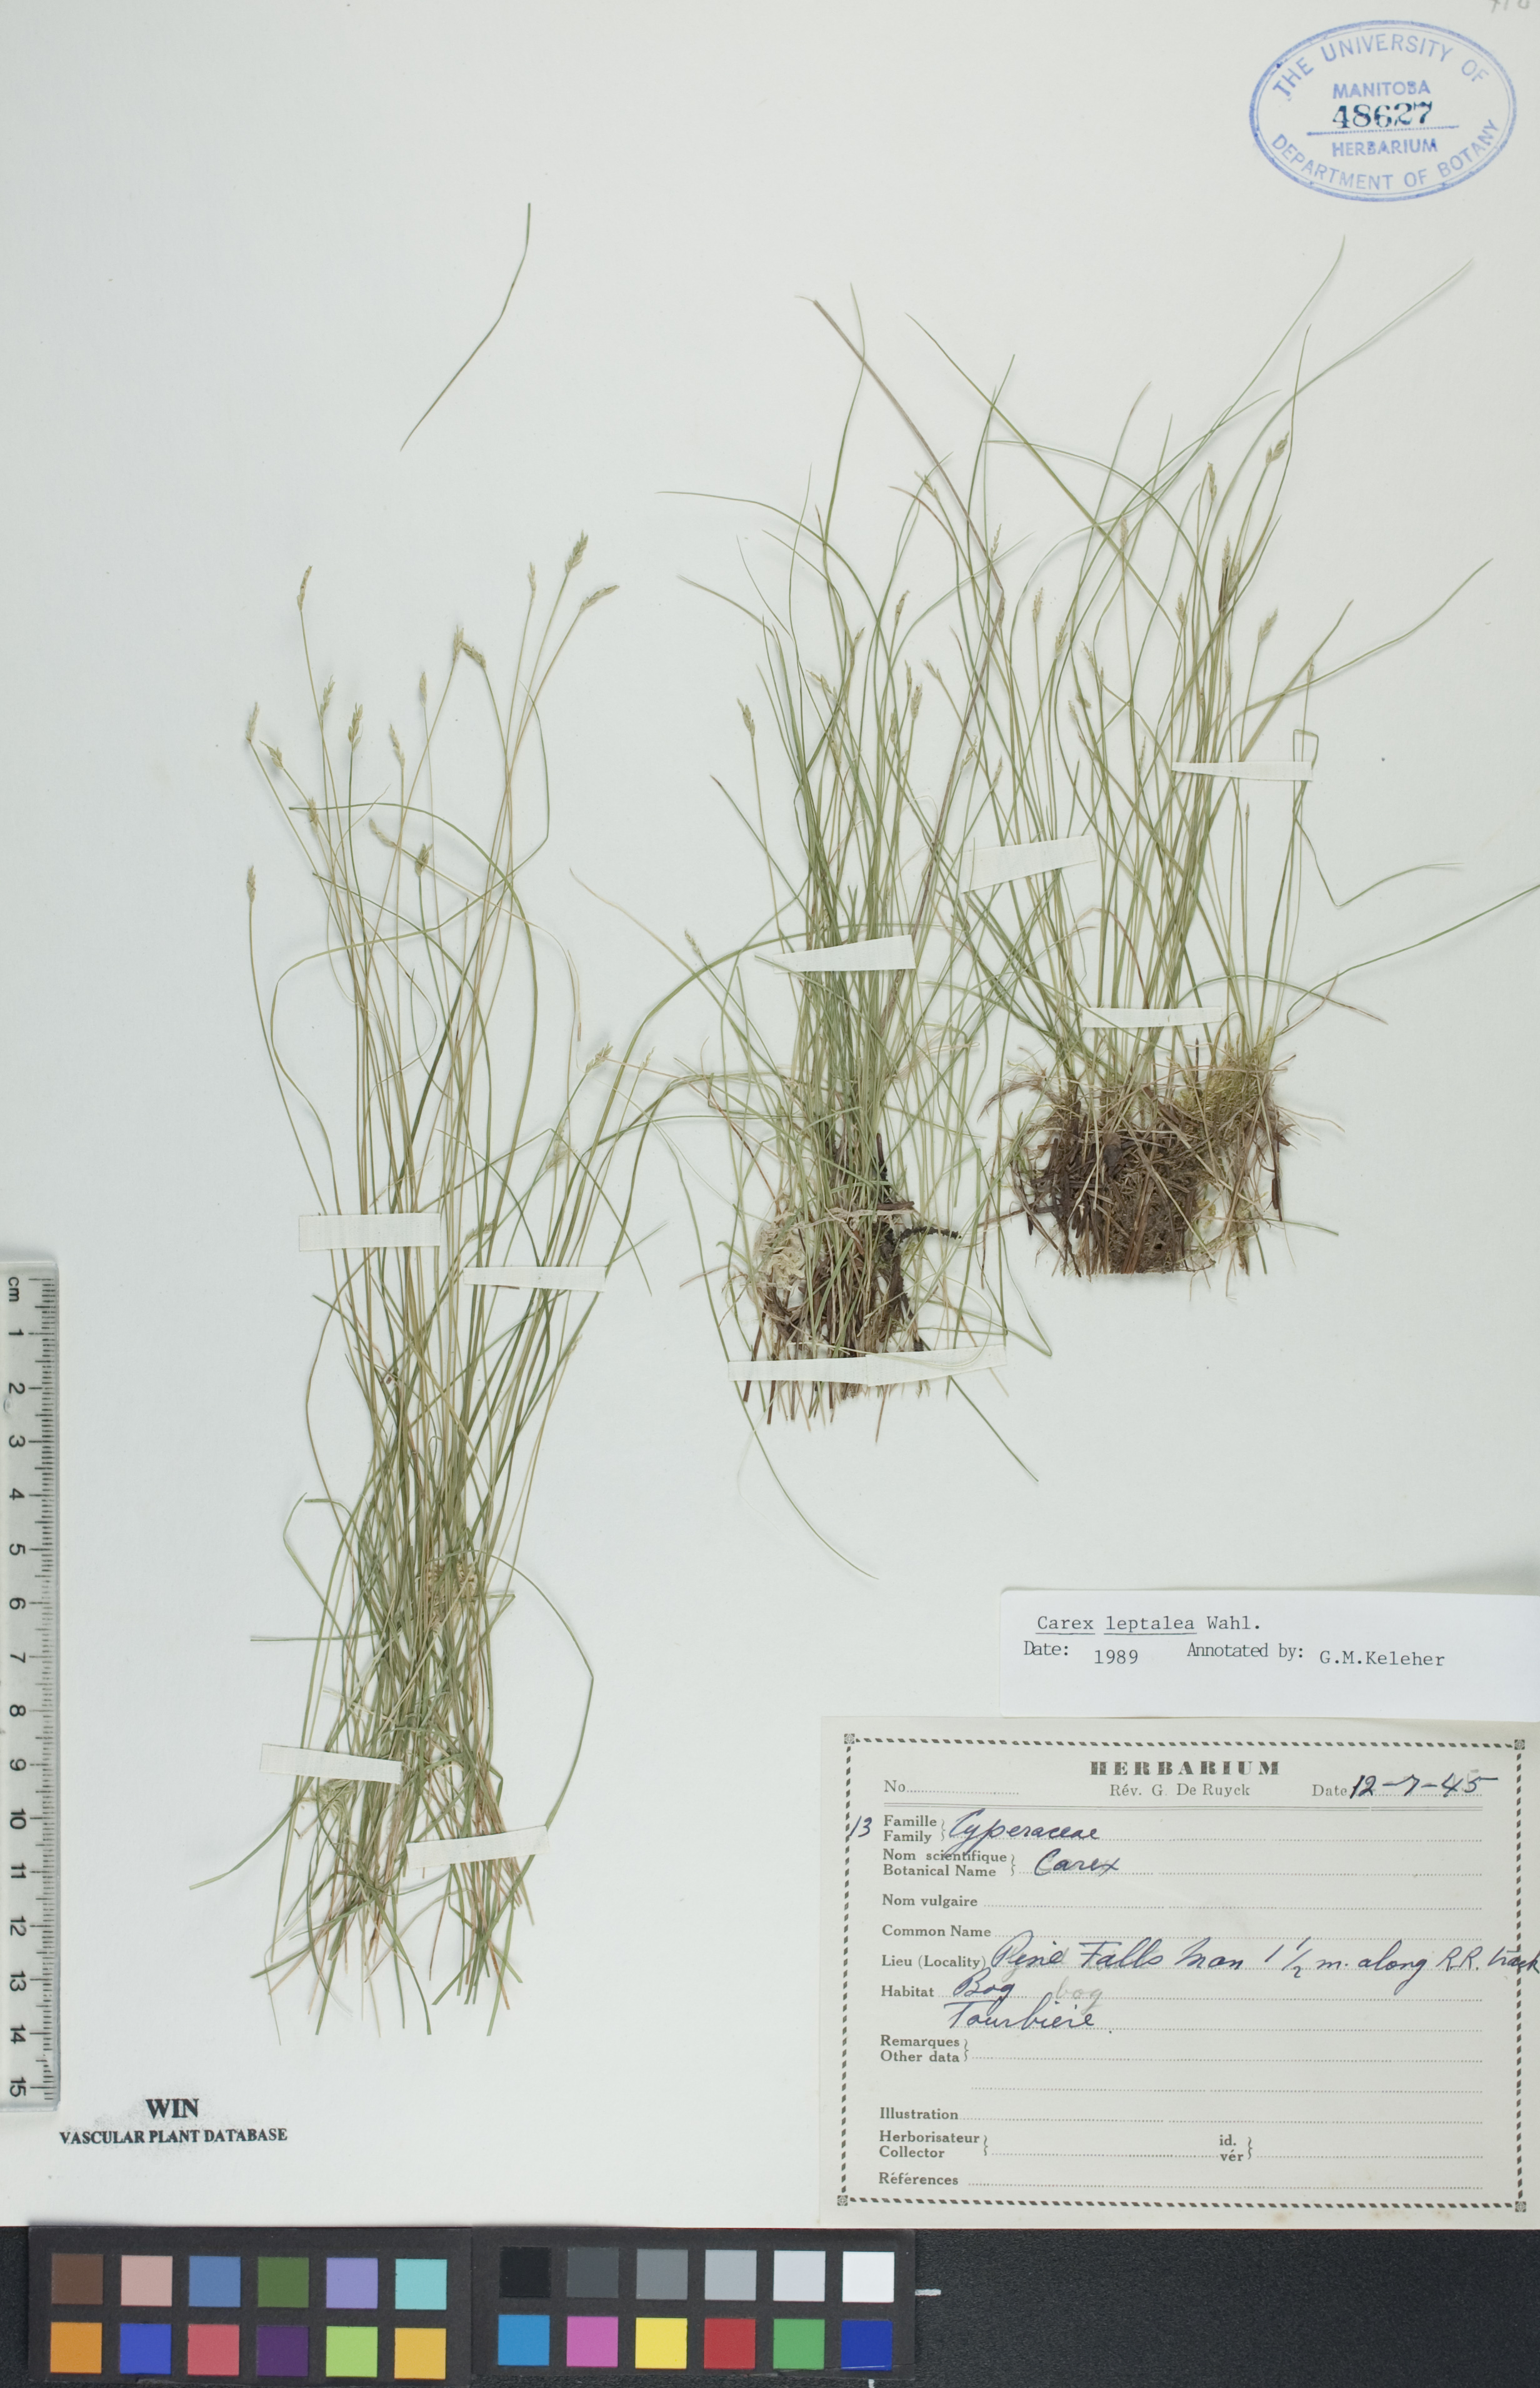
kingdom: Plantae
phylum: Tracheophyta
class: Liliopsida
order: Poales
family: Cyperaceae
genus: Carex
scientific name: Carex leptalea
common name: Bristly-stalked sedge
